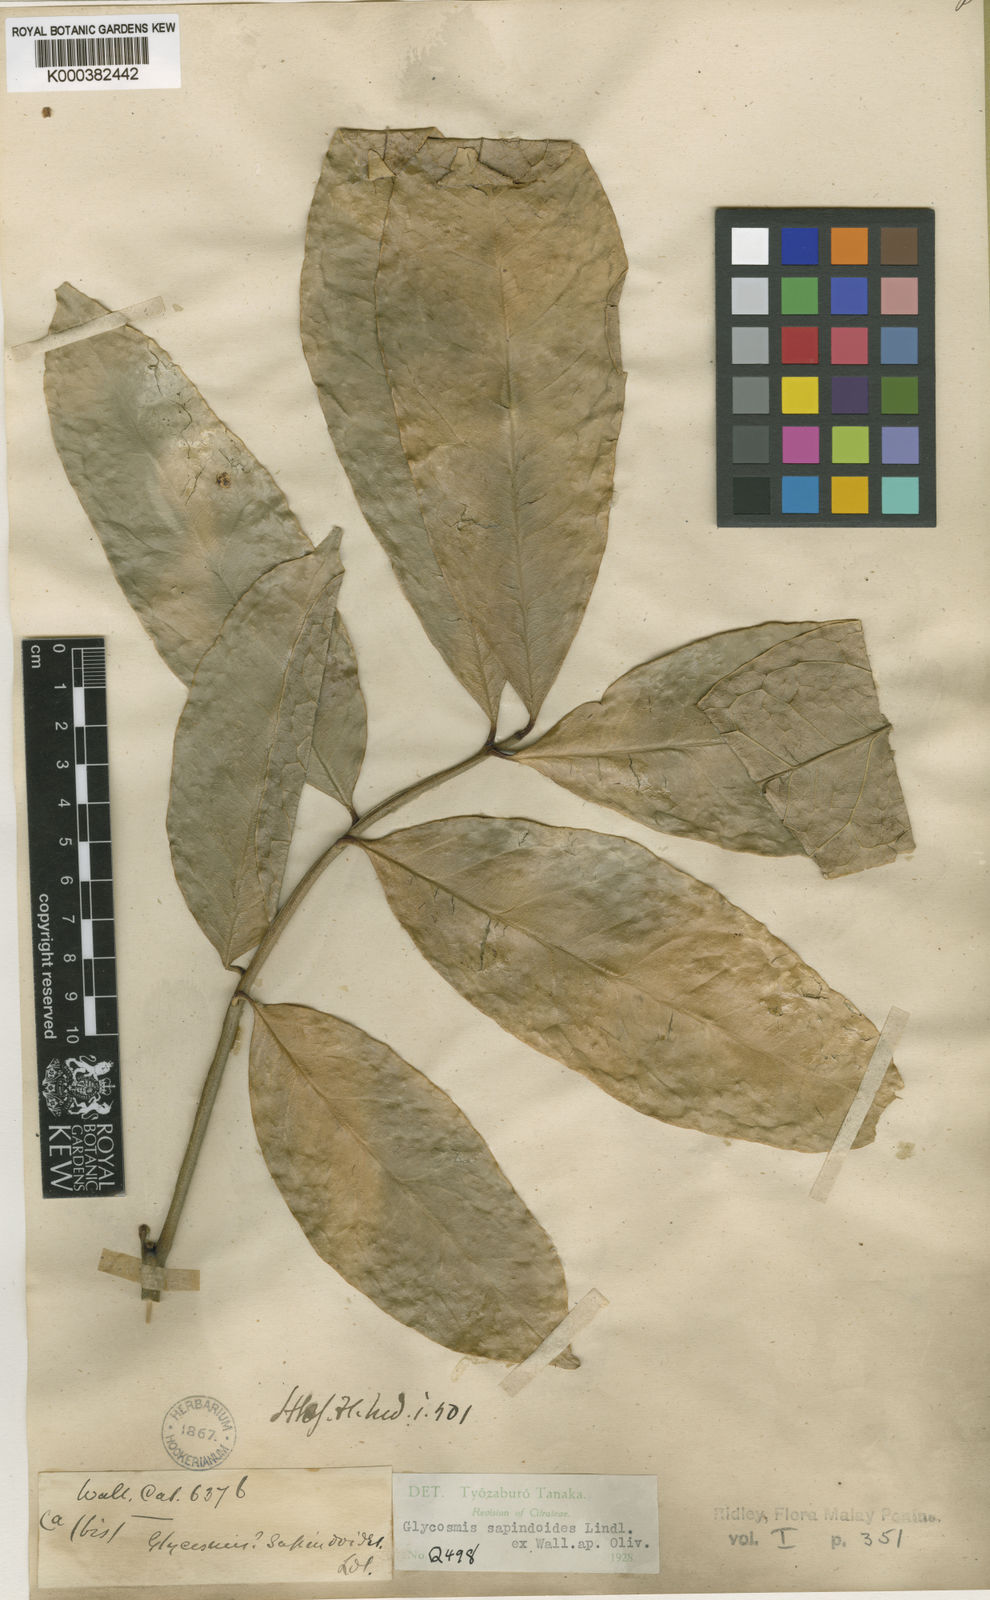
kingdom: Plantae
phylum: Tracheophyta
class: Magnoliopsida
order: Sapindales
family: Rutaceae
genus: Glycosmis
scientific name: Glycosmis
